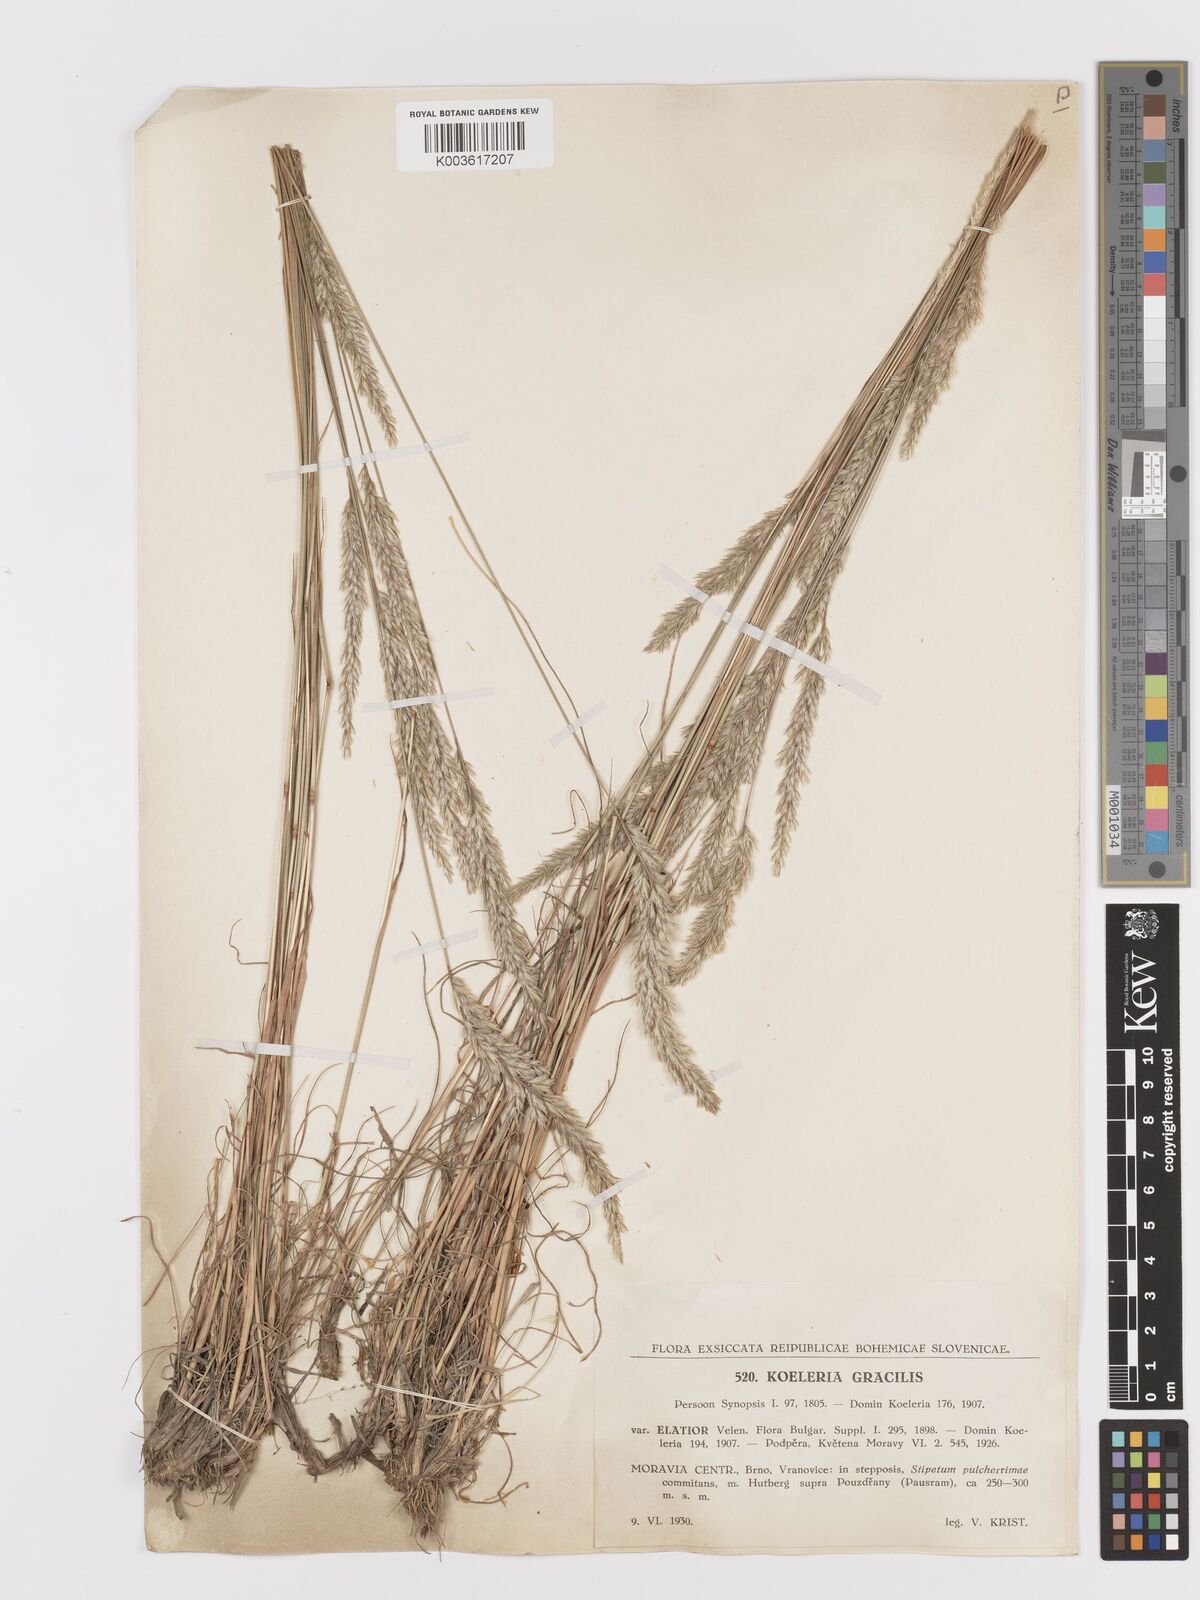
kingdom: Plantae
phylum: Tracheophyta
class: Liliopsida
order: Poales
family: Poaceae
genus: Koeleria
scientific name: Koeleria macrantha
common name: Crested hair-grass
